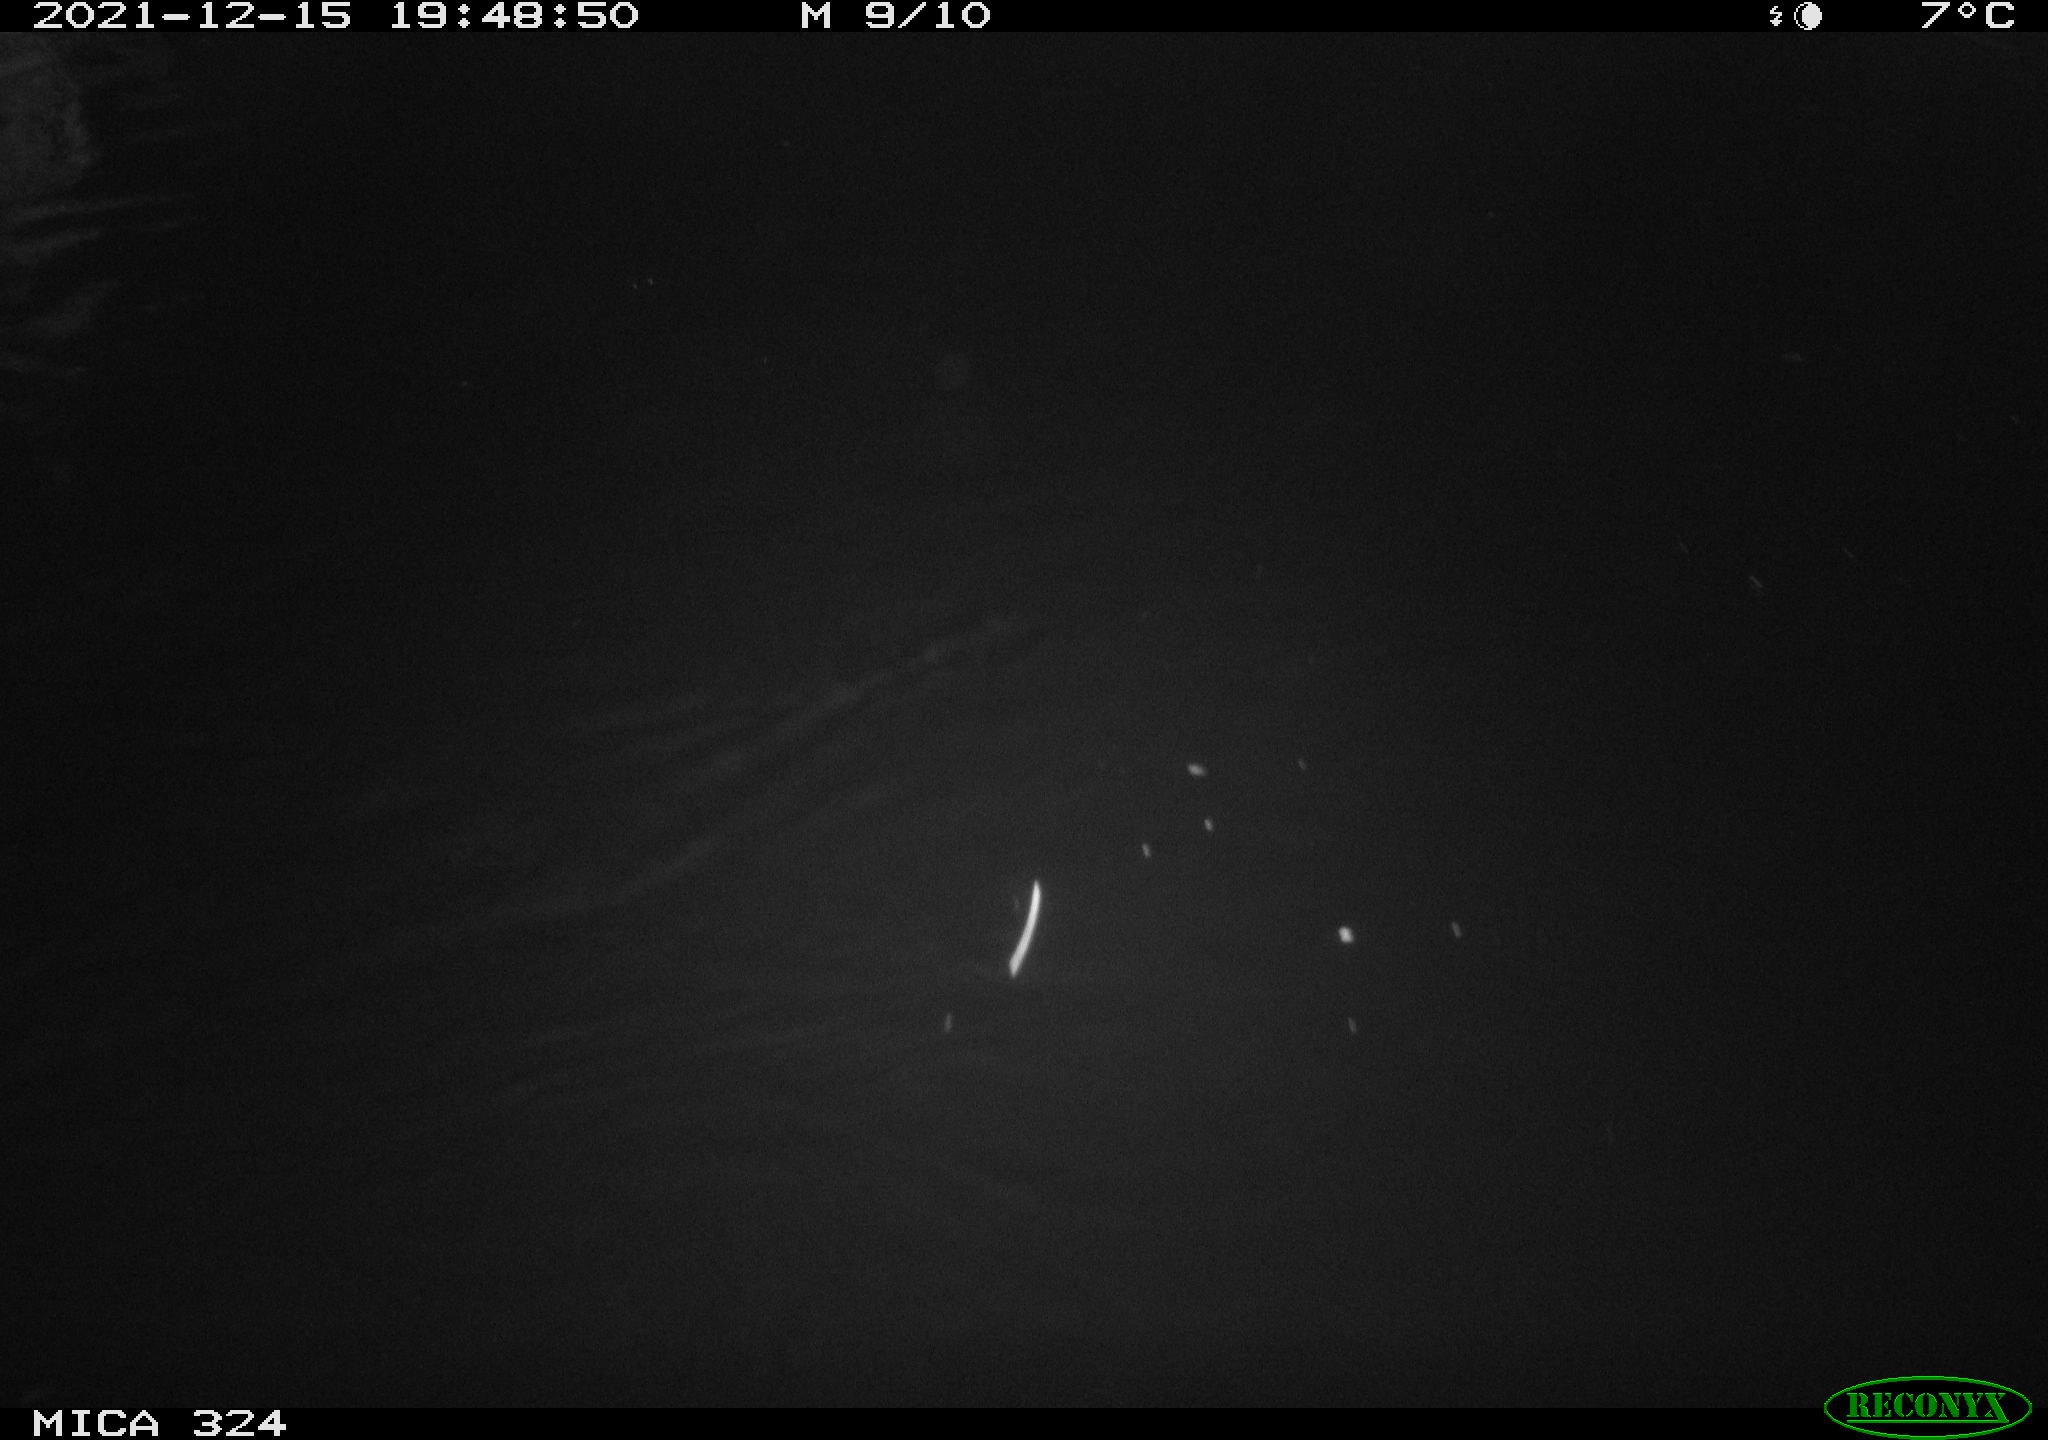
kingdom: Animalia
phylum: Chordata
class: Mammalia
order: Rodentia
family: Cricetidae
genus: Ondatra
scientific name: Ondatra zibethicus
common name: Muskrat
